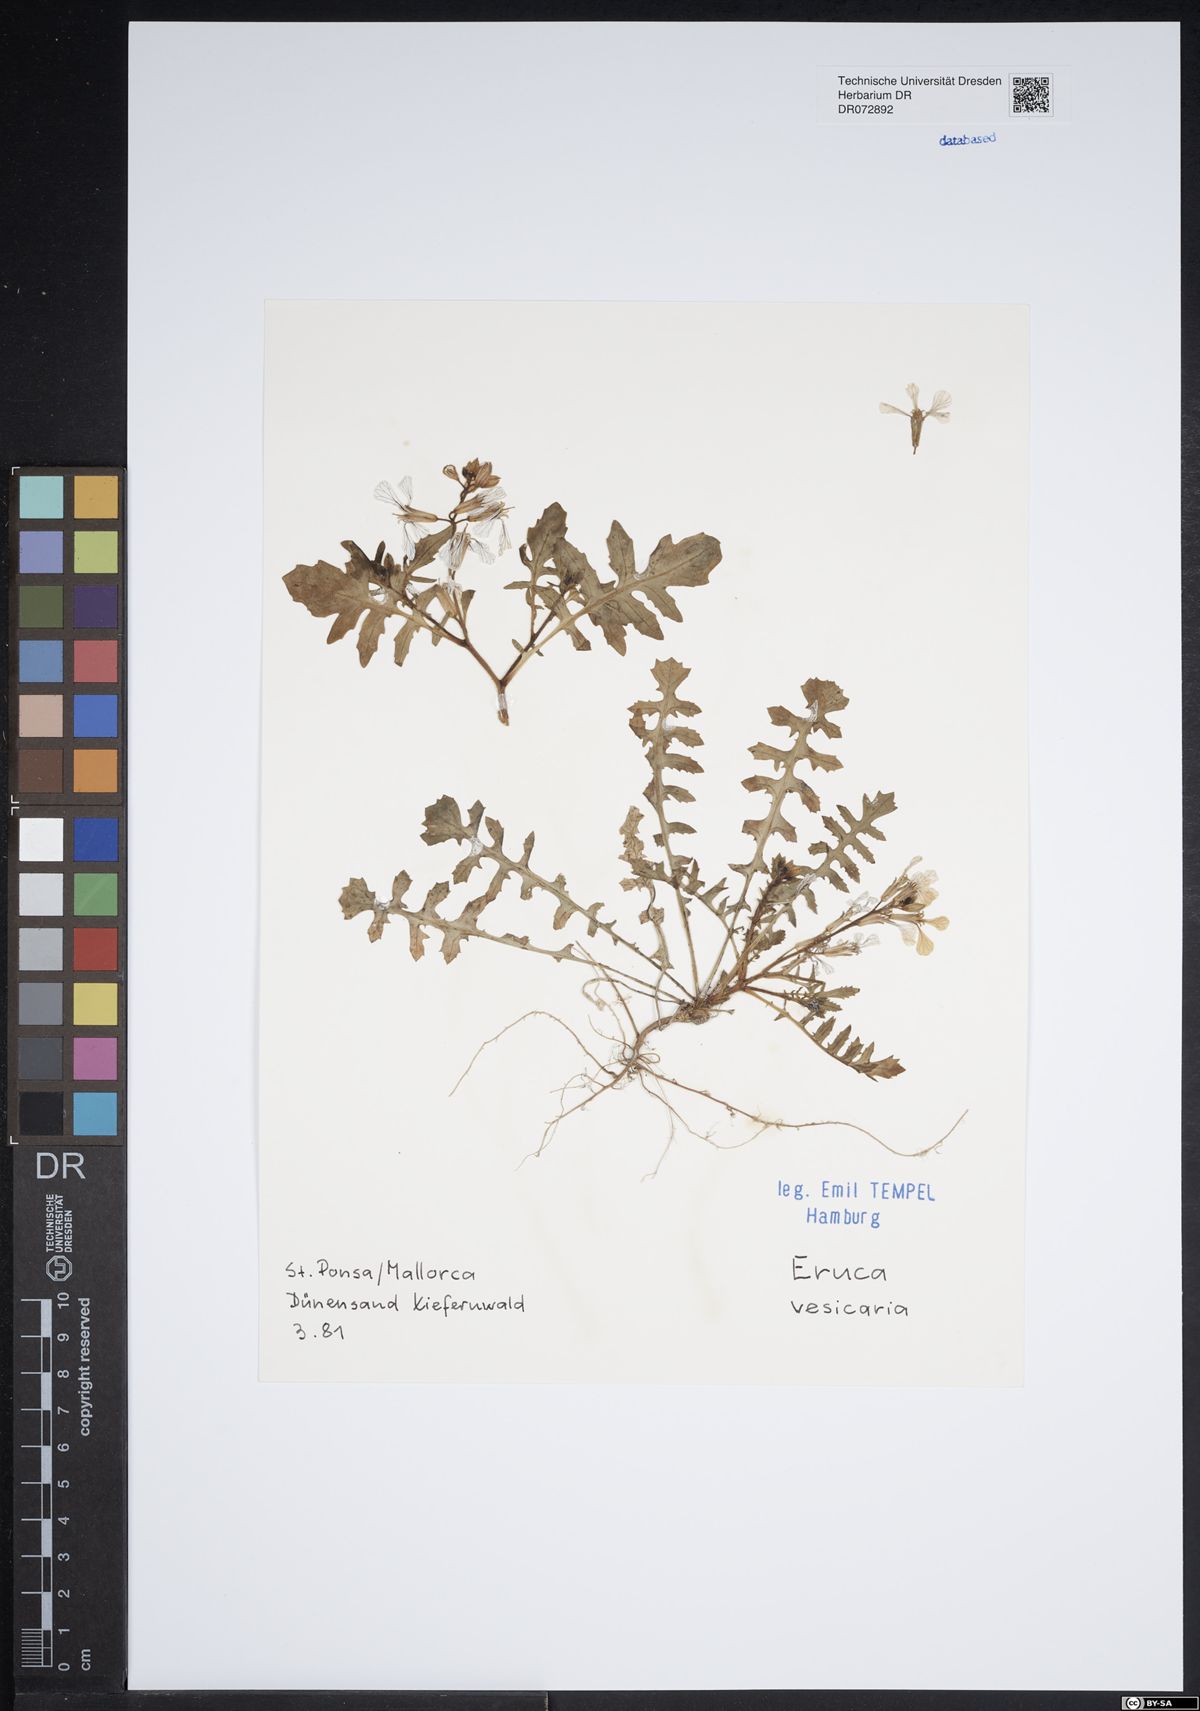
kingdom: Plantae
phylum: Tracheophyta
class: Magnoliopsida
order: Brassicales
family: Brassicaceae
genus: Eruca
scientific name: Eruca vesicaria
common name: Garden rocket
